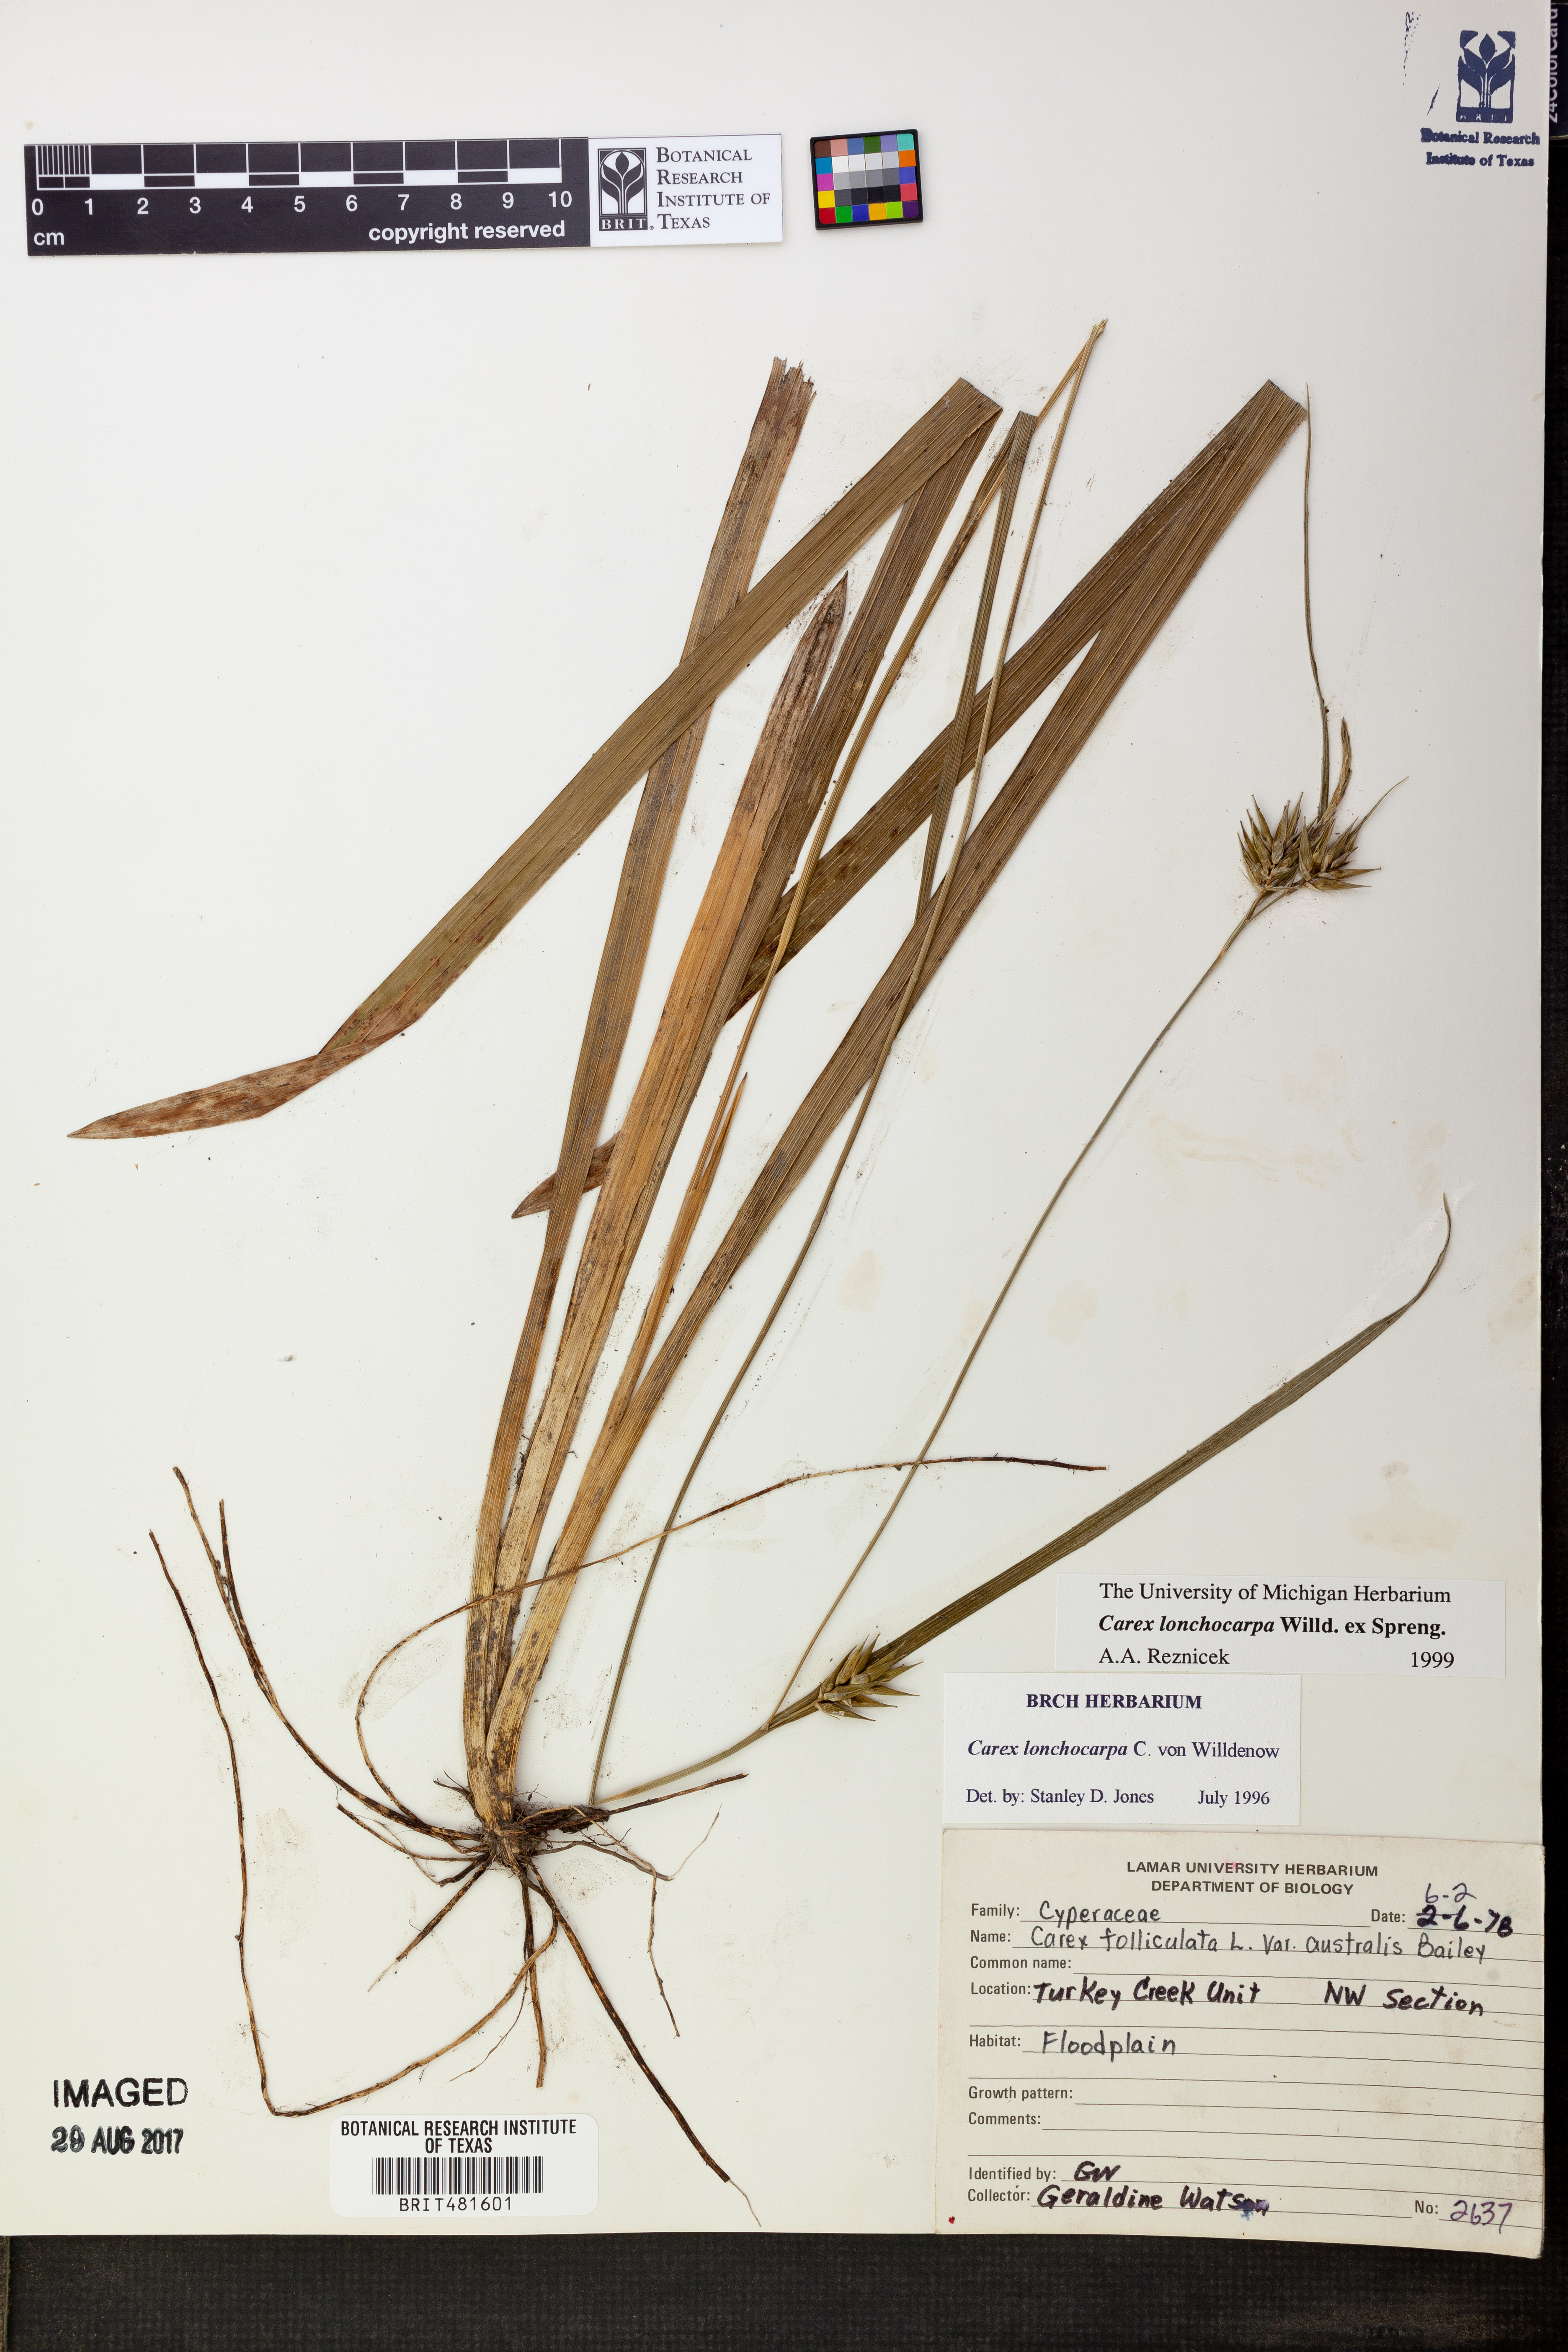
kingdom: Plantae
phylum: Tracheophyta
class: Liliopsida
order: Poales
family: Cyperaceae
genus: Carex
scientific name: Carex lonchocarpa
